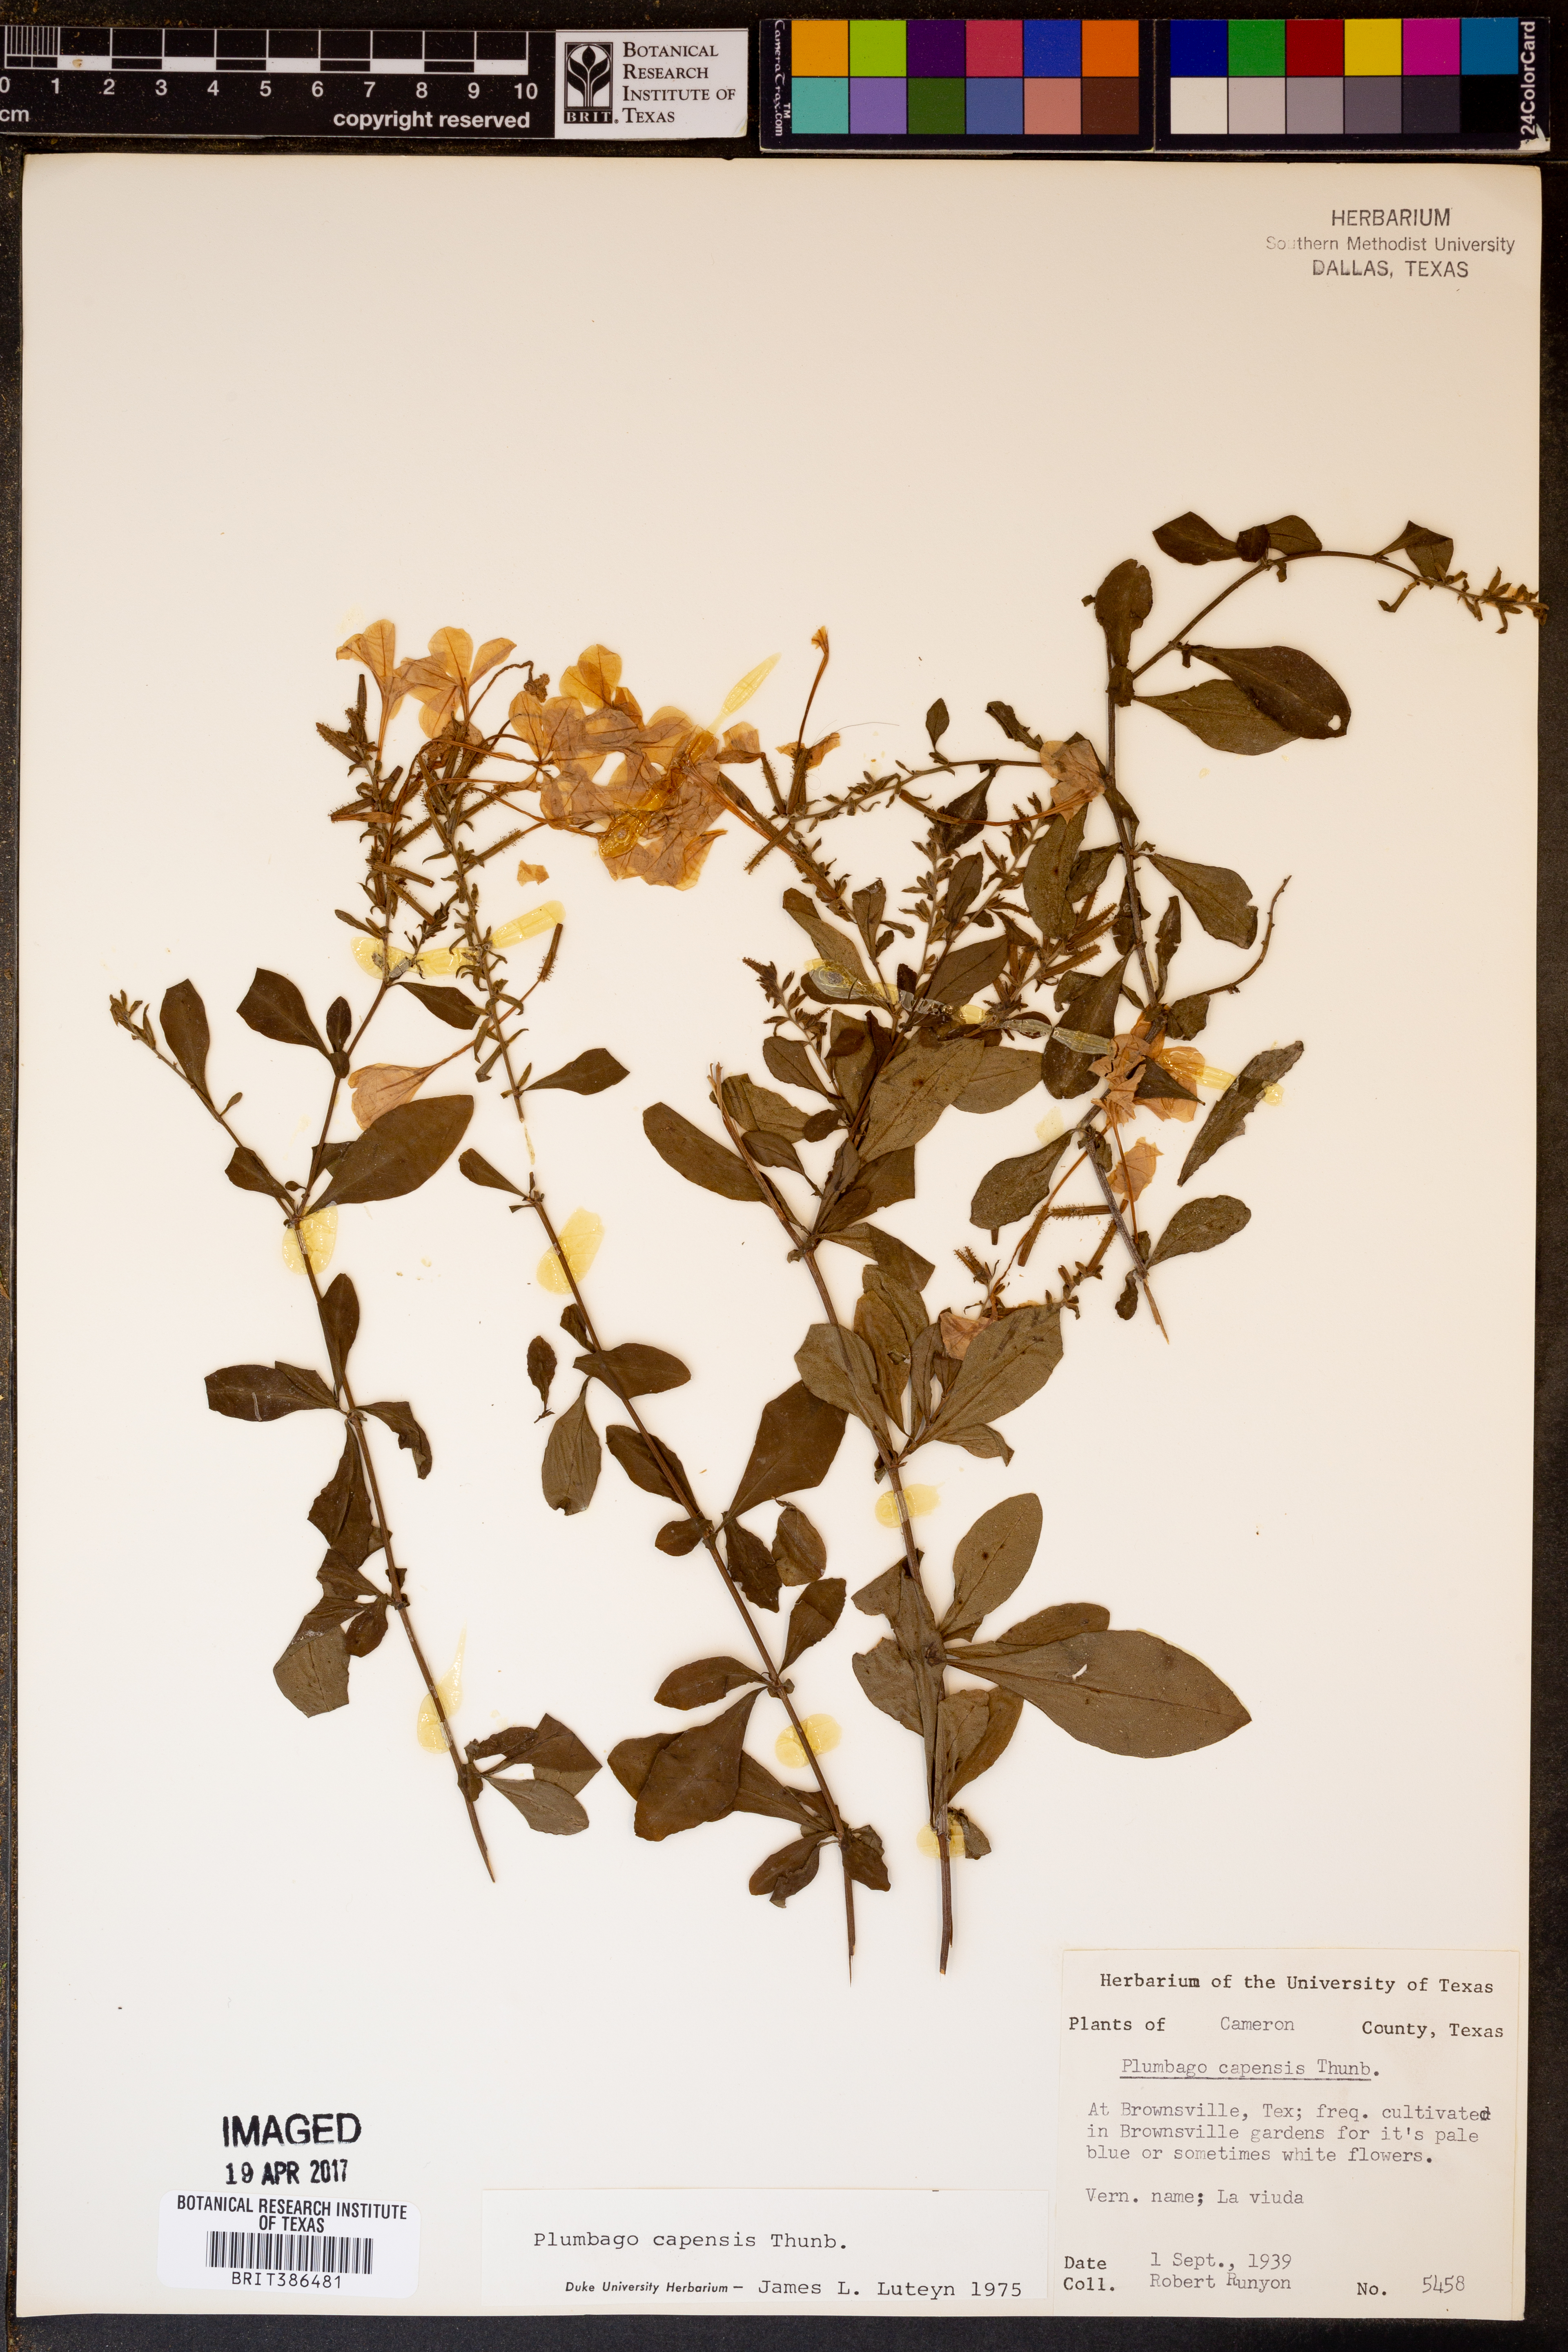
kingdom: Plantae
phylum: Tracheophyta
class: Magnoliopsida
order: Caryophyllales
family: Plumbaginaceae
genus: Plumbago
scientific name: Plumbago auriculata
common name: Cape leadwort
